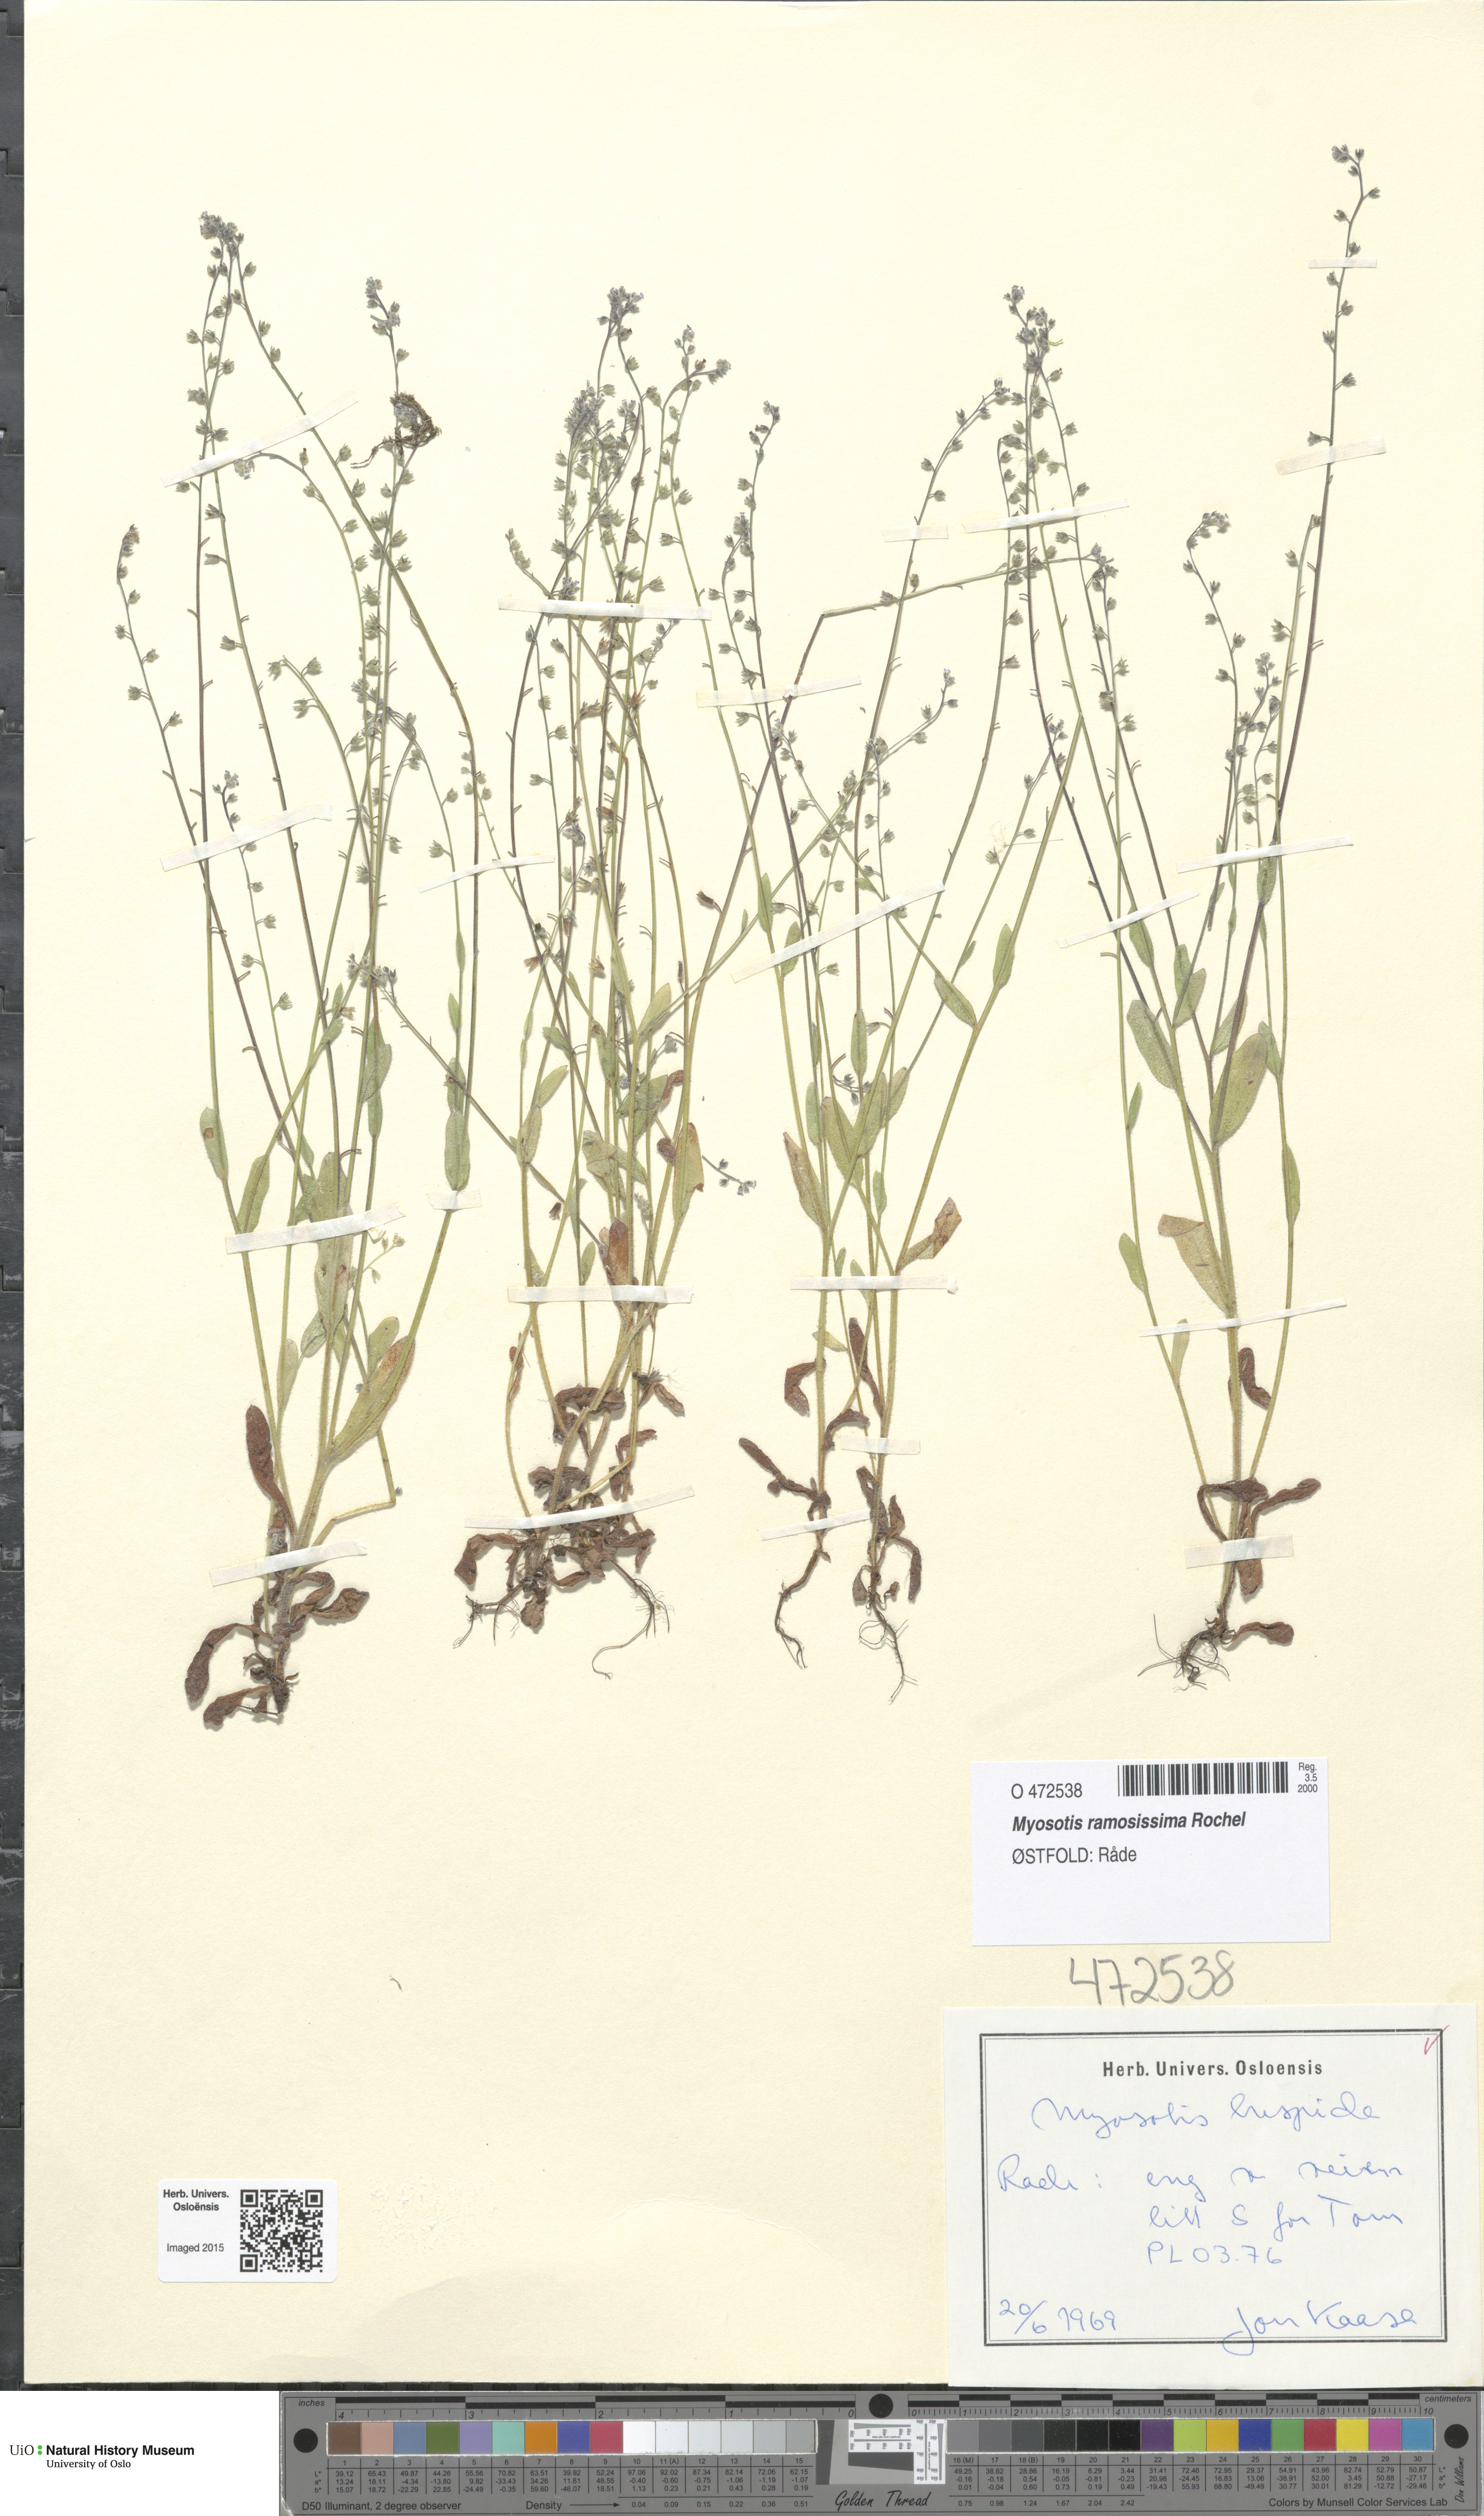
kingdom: Plantae
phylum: Tracheophyta
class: Magnoliopsida
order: Boraginales
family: Boraginaceae
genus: Myosotis
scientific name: Myosotis ramosissima
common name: Early forget-me-not
